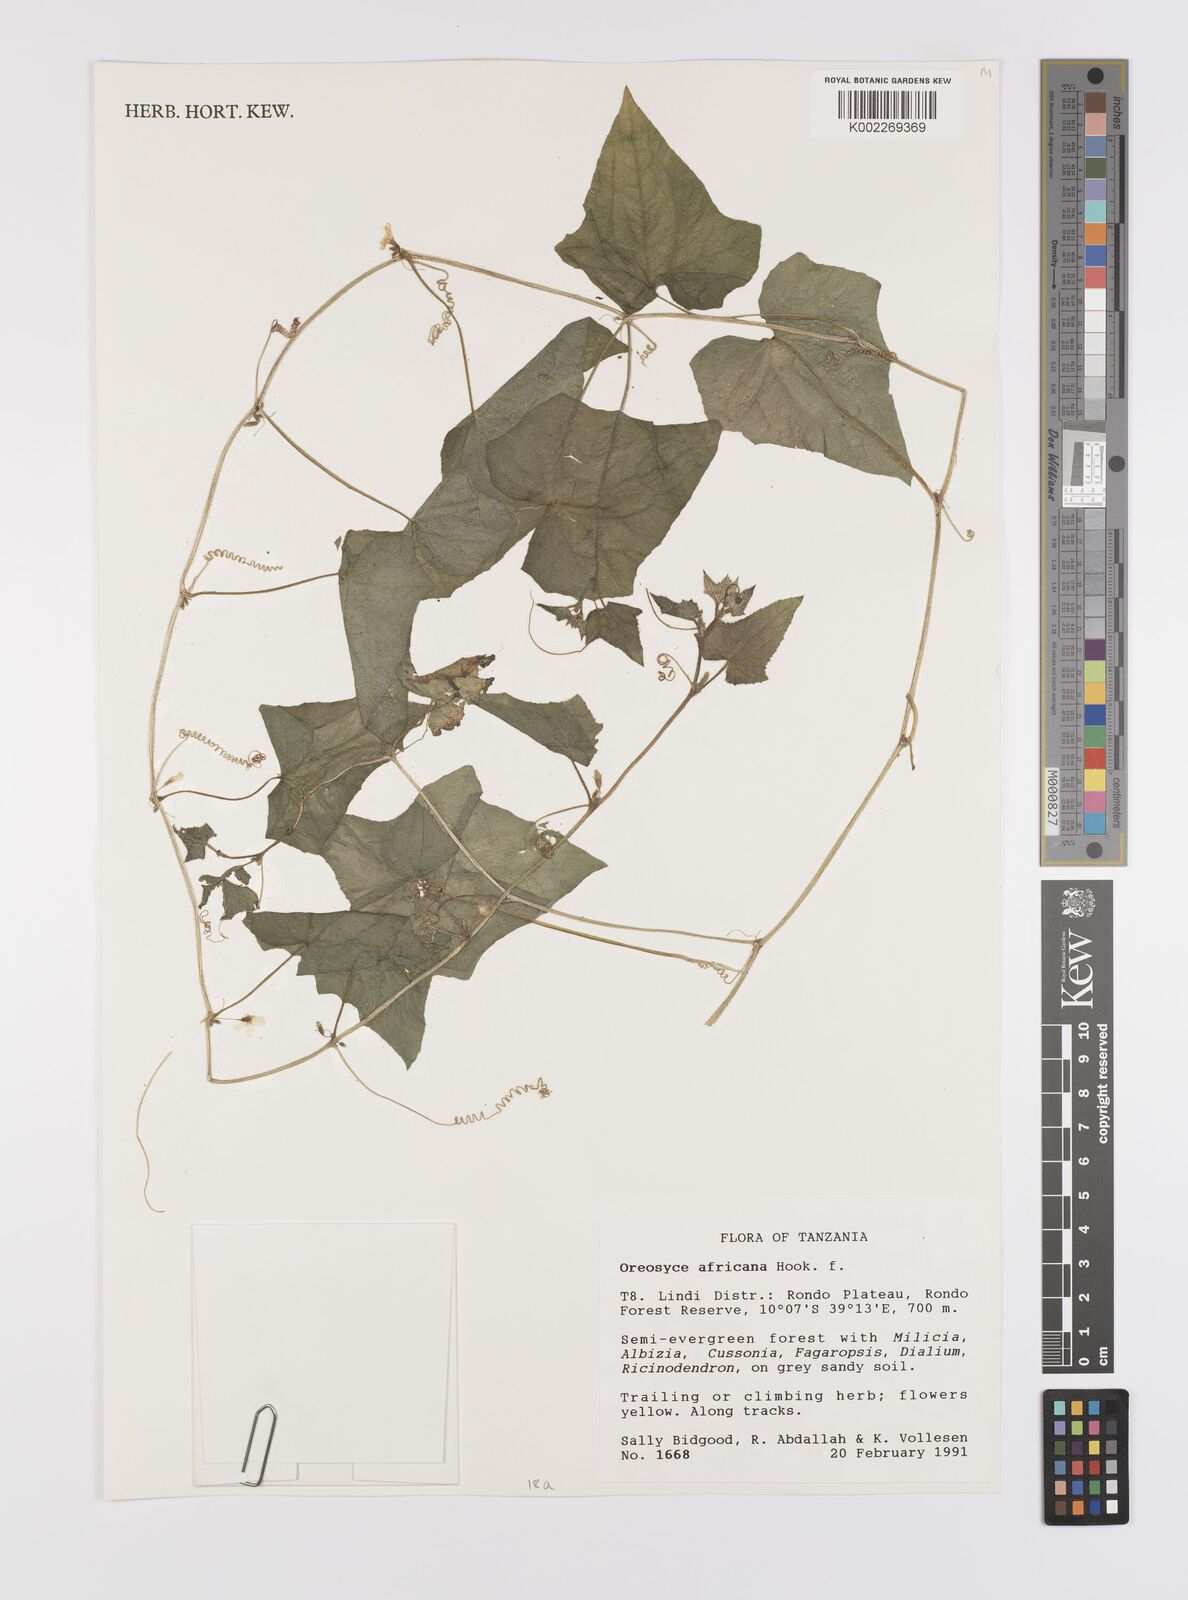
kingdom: Plantae
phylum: Tracheophyta
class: Magnoliopsida
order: Cucurbitales
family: Cucurbitaceae
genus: Cucumis
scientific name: Cucumis oreosyce
